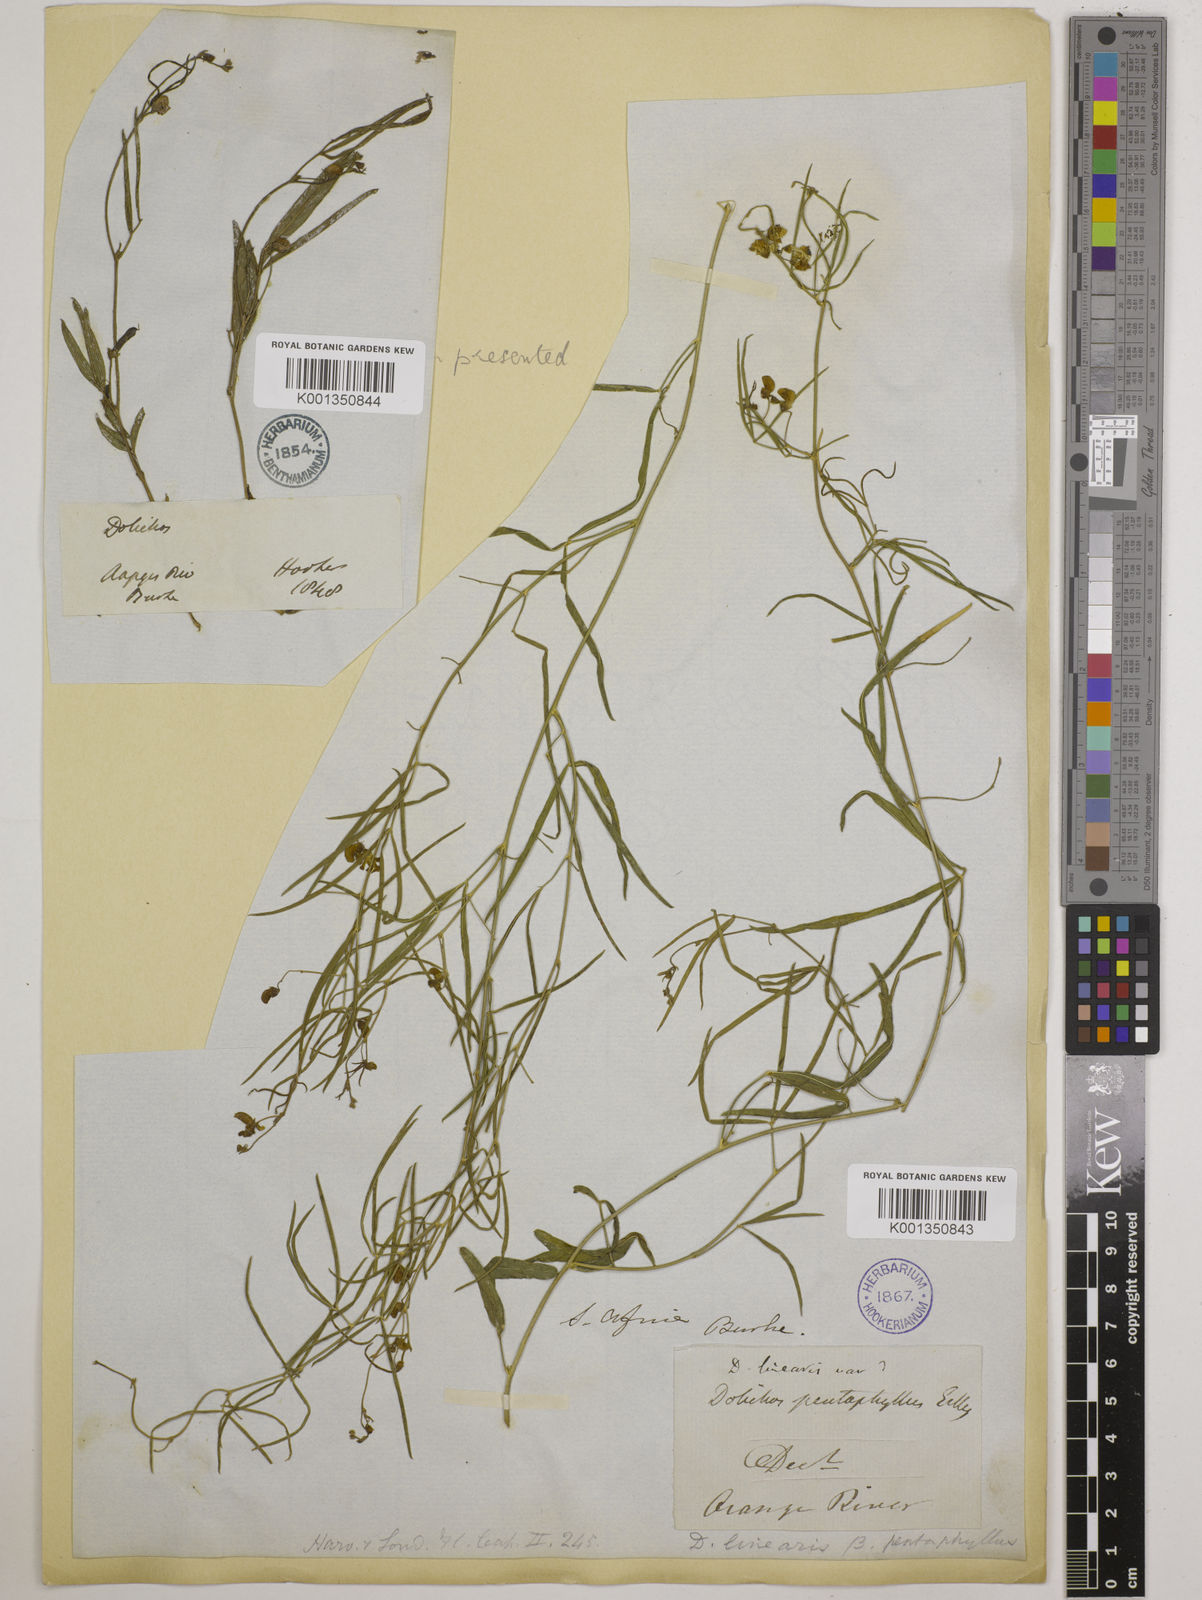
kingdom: Plantae
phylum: Tracheophyta
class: Magnoliopsida
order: Fabales
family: Fabaceae
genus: Dolichos
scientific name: Dolichos linearis
